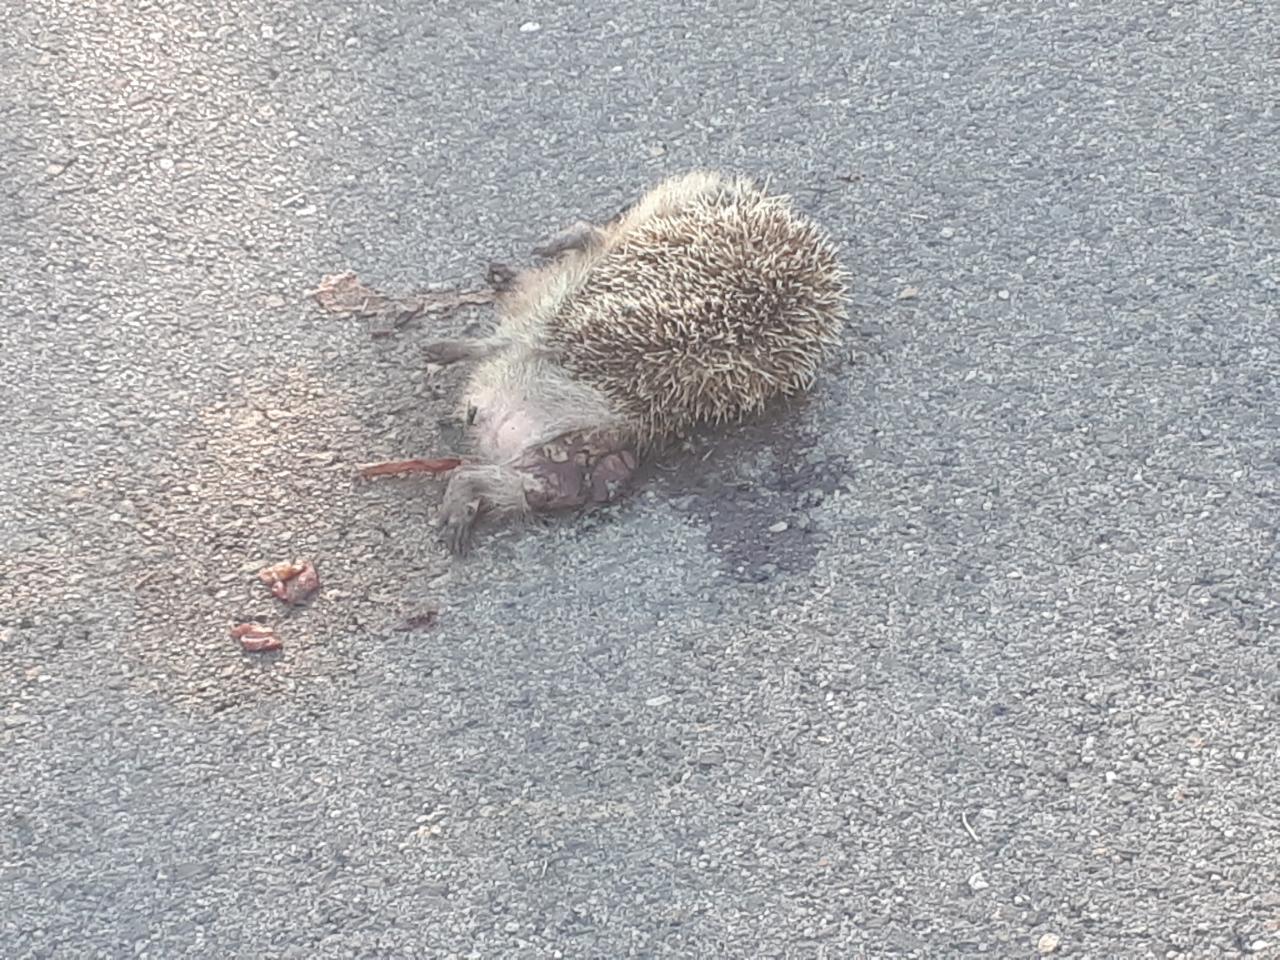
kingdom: Animalia
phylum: Chordata
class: Mammalia
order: Erinaceomorpha
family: Erinaceidae
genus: Erinaceus
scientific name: Erinaceus
